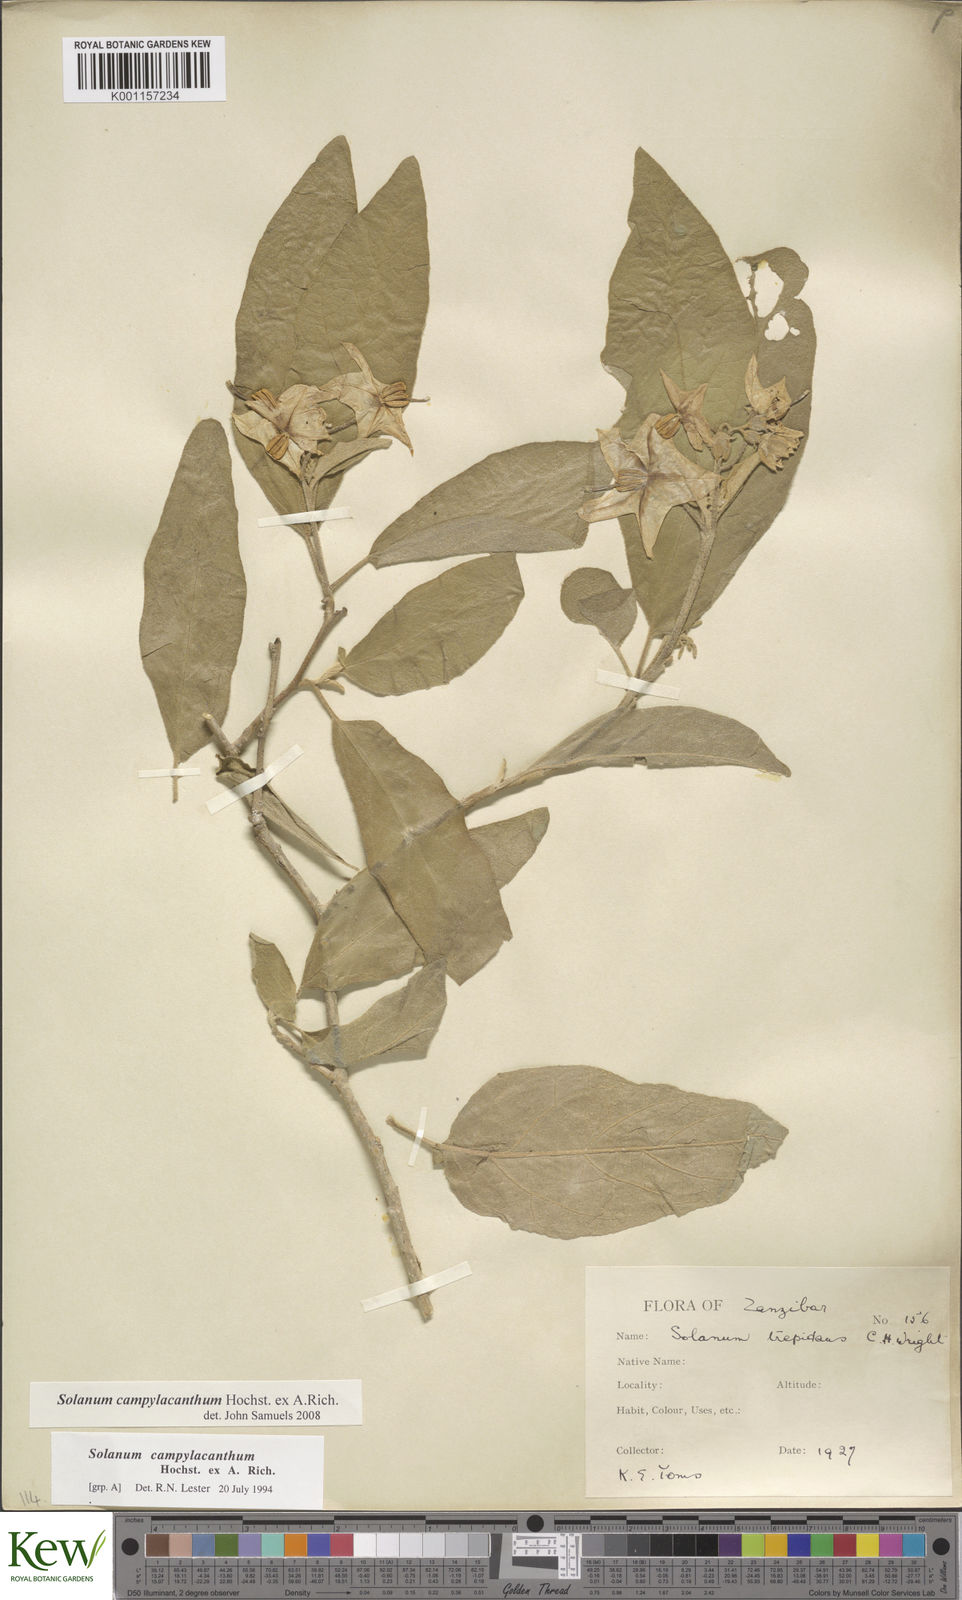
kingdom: Plantae
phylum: Tracheophyta
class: Magnoliopsida
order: Solanales
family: Solanaceae
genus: Solanum
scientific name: Solanum campylacanthum
